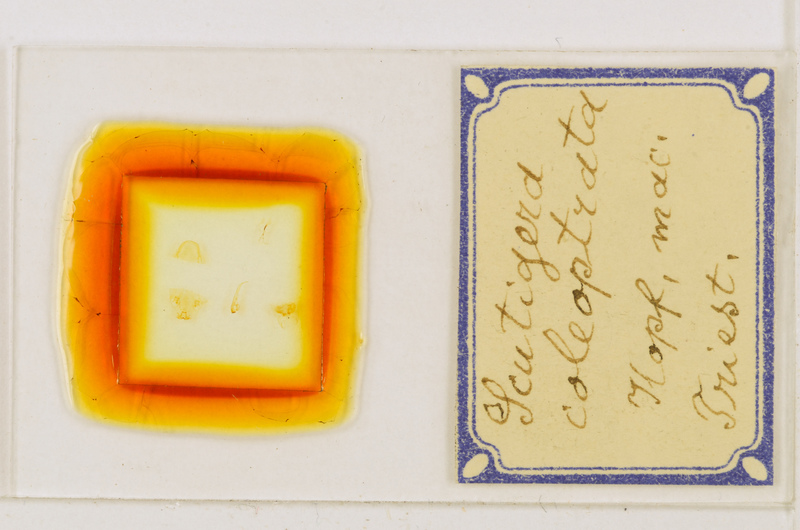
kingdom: Animalia
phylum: Arthropoda
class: Chilopoda
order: Scutigeromorpha
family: Scutigeridae
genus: Scutigera
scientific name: Scutigera coleoptrata
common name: House centipede
